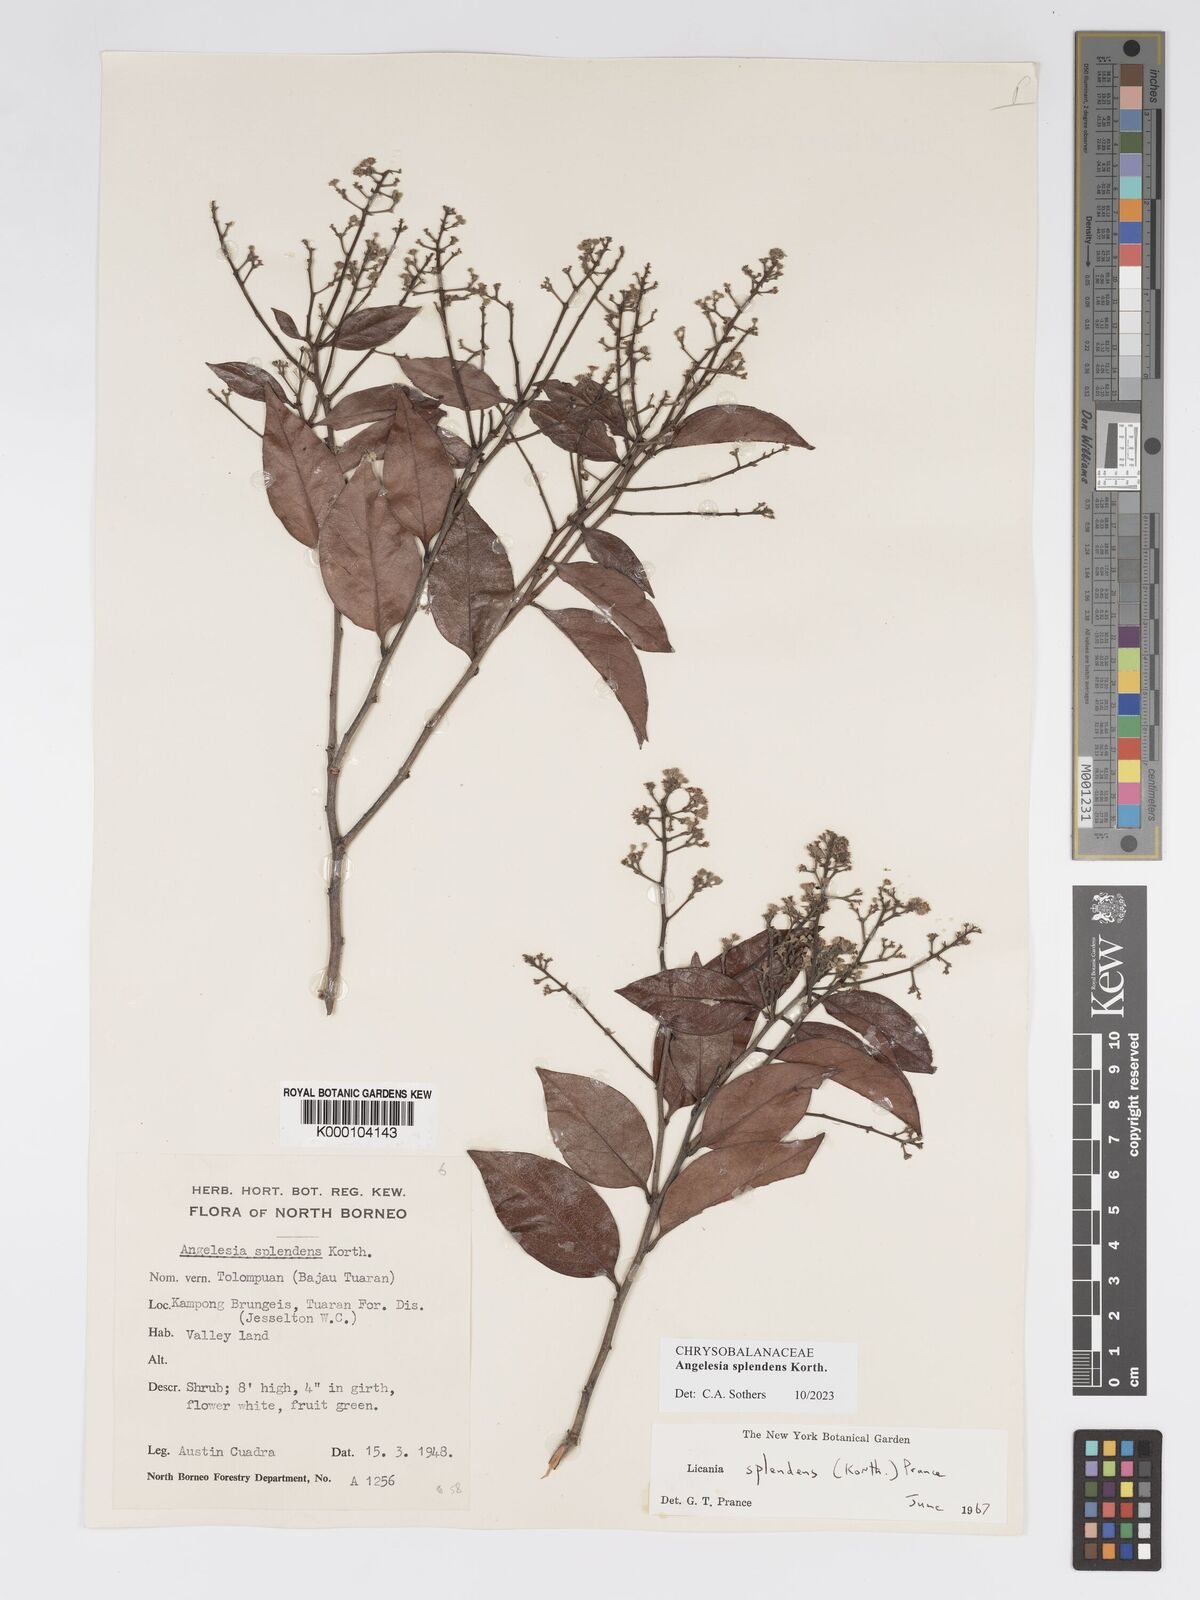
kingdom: Plantae
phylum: Tracheophyta
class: Magnoliopsida
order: Malpighiales
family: Chrysobalanaceae
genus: Angelesia
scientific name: Angelesia splendens
